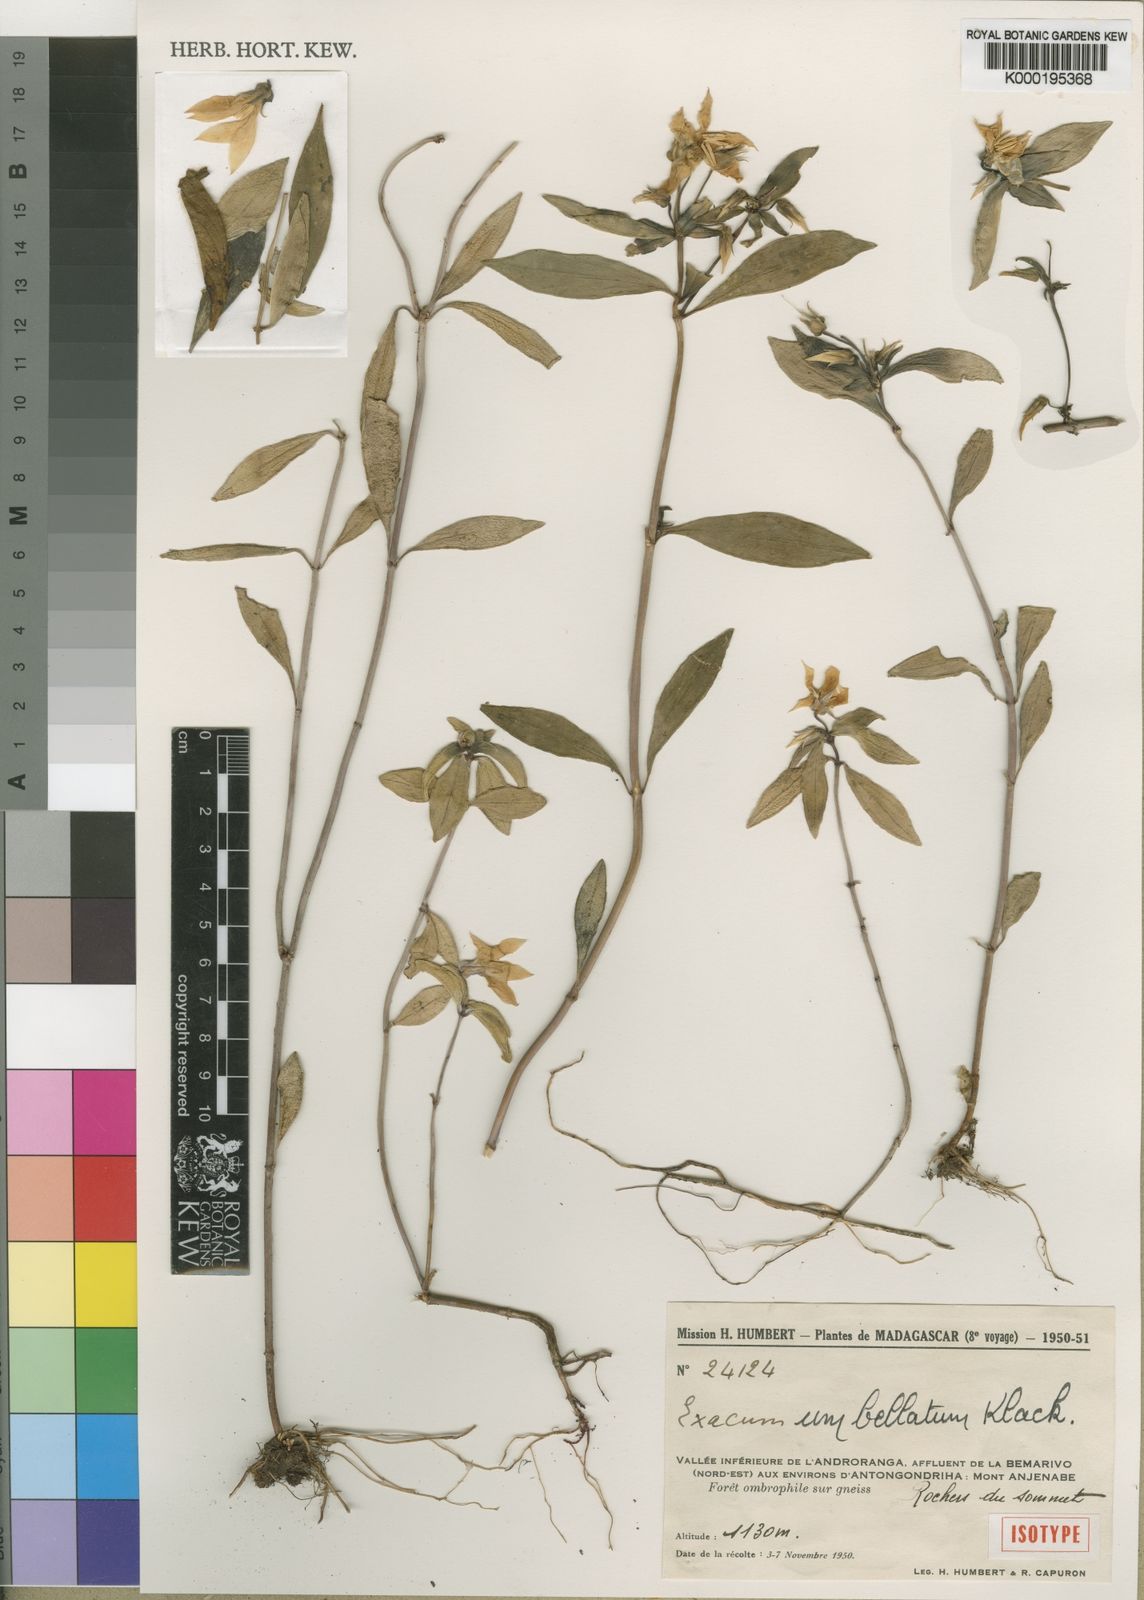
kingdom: Plantae
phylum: Tracheophyta
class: Magnoliopsida
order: Gentianales
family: Gentianaceae
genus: Exacum
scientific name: Exacum umbellatum
